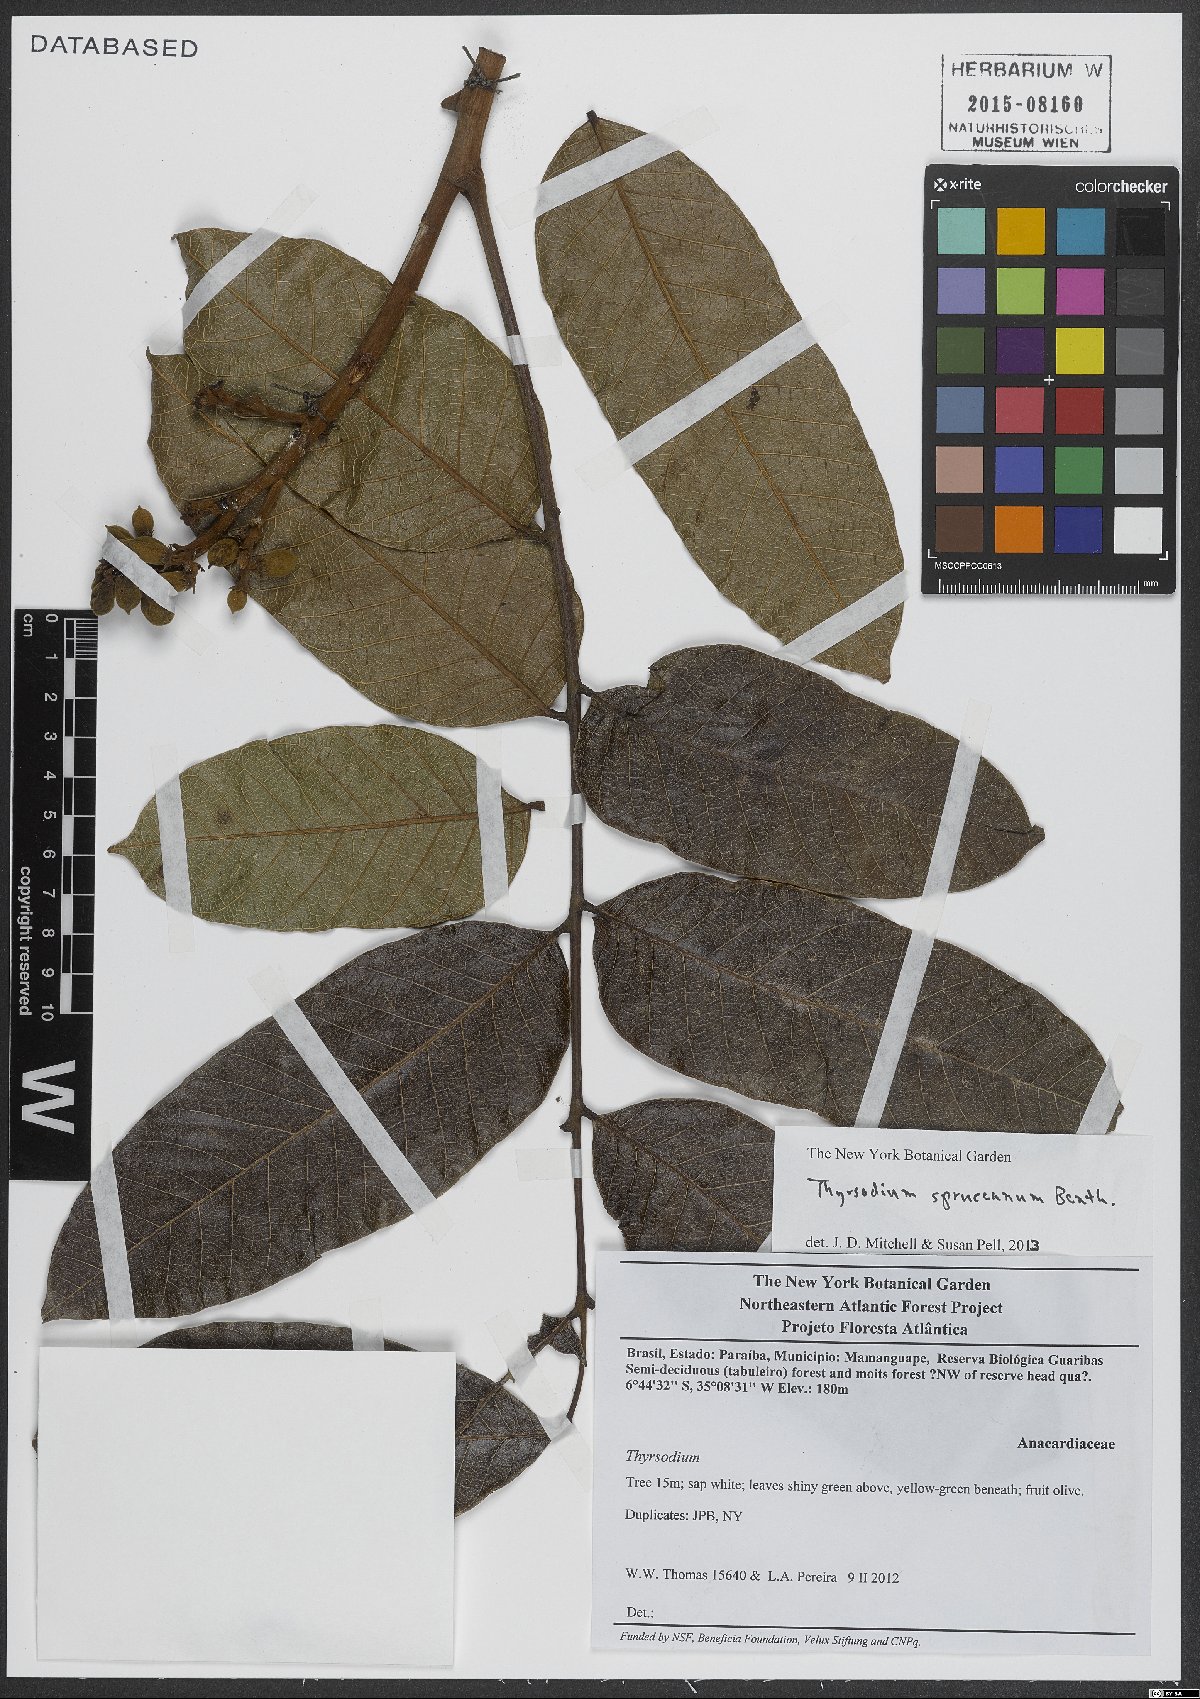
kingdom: Plantae
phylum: Tracheophyta
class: Magnoliopsida
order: Sapindales
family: Anacardiaceae
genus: Thyrsodium
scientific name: Thyrsodium spruceanum
